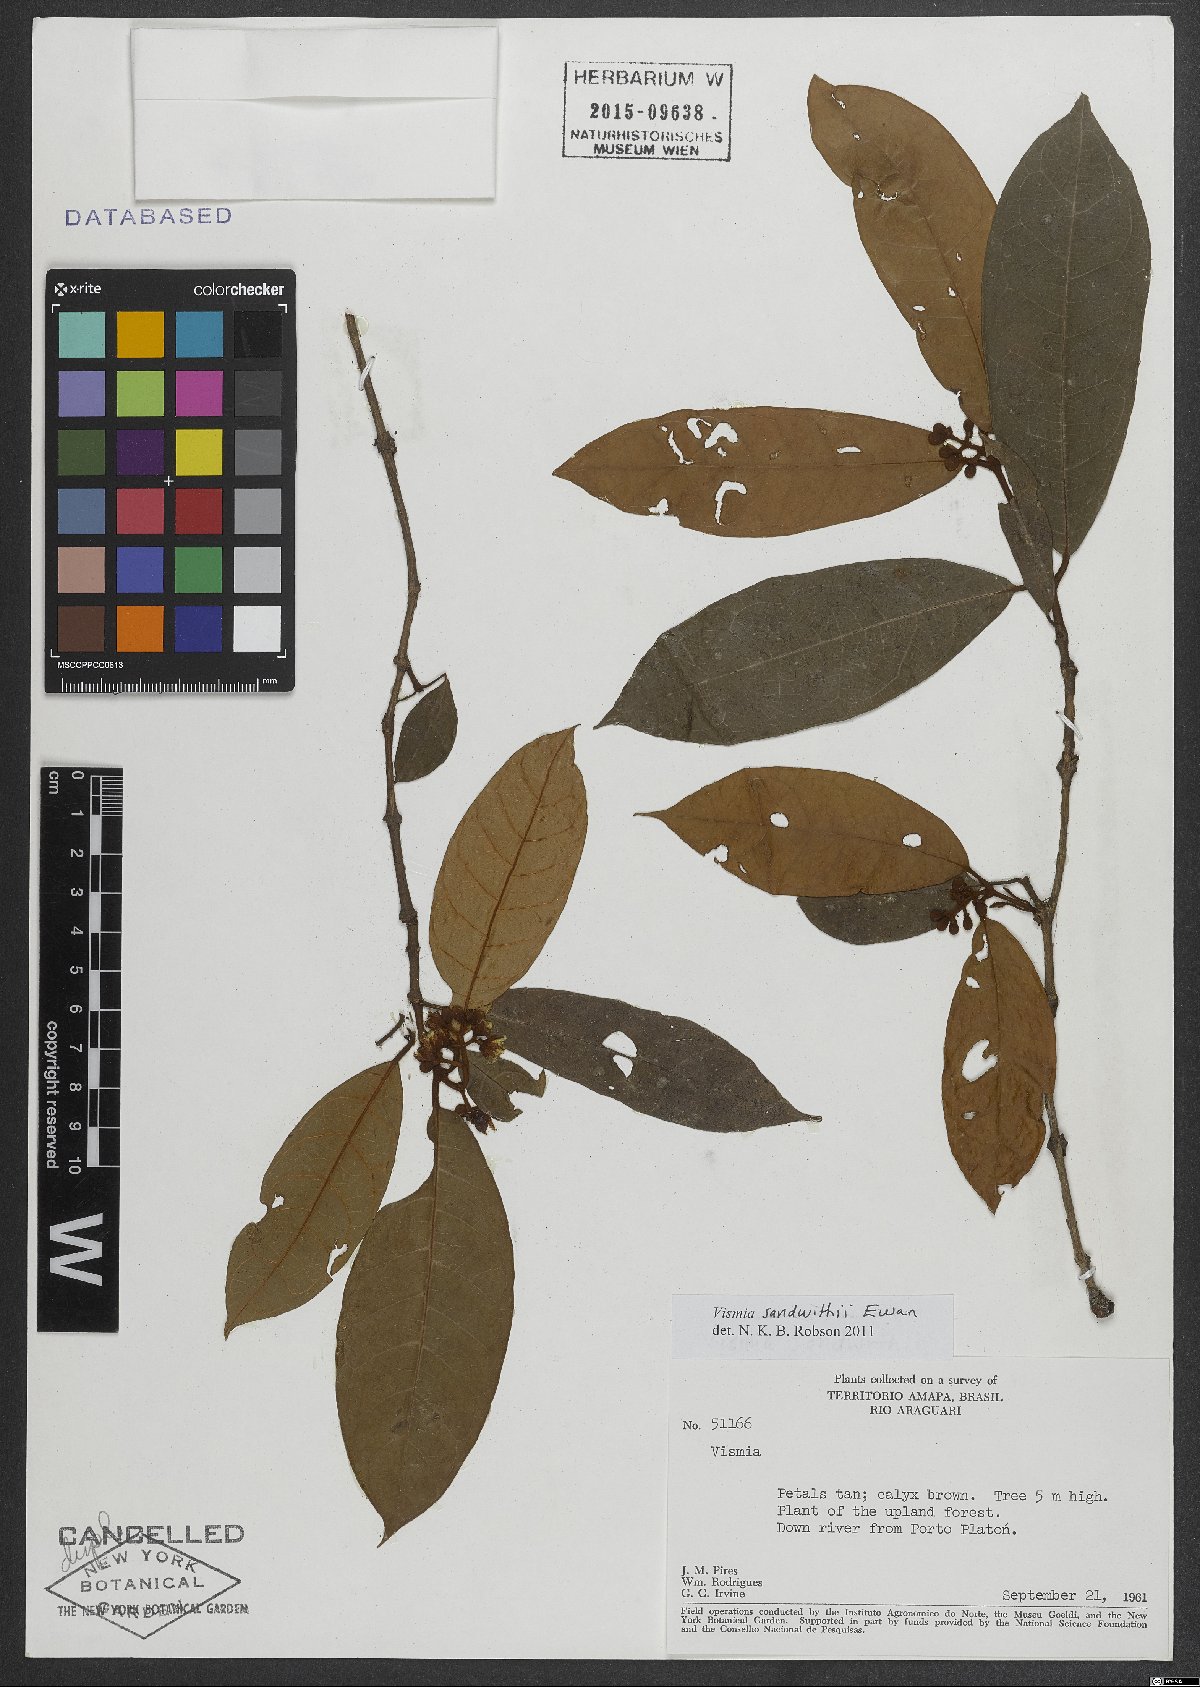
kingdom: Plantae
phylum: Tracheophyta
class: Magnoliopsida
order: Malpighiales
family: Hypericaceae
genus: Vismia
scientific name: Vismia sandwithii
